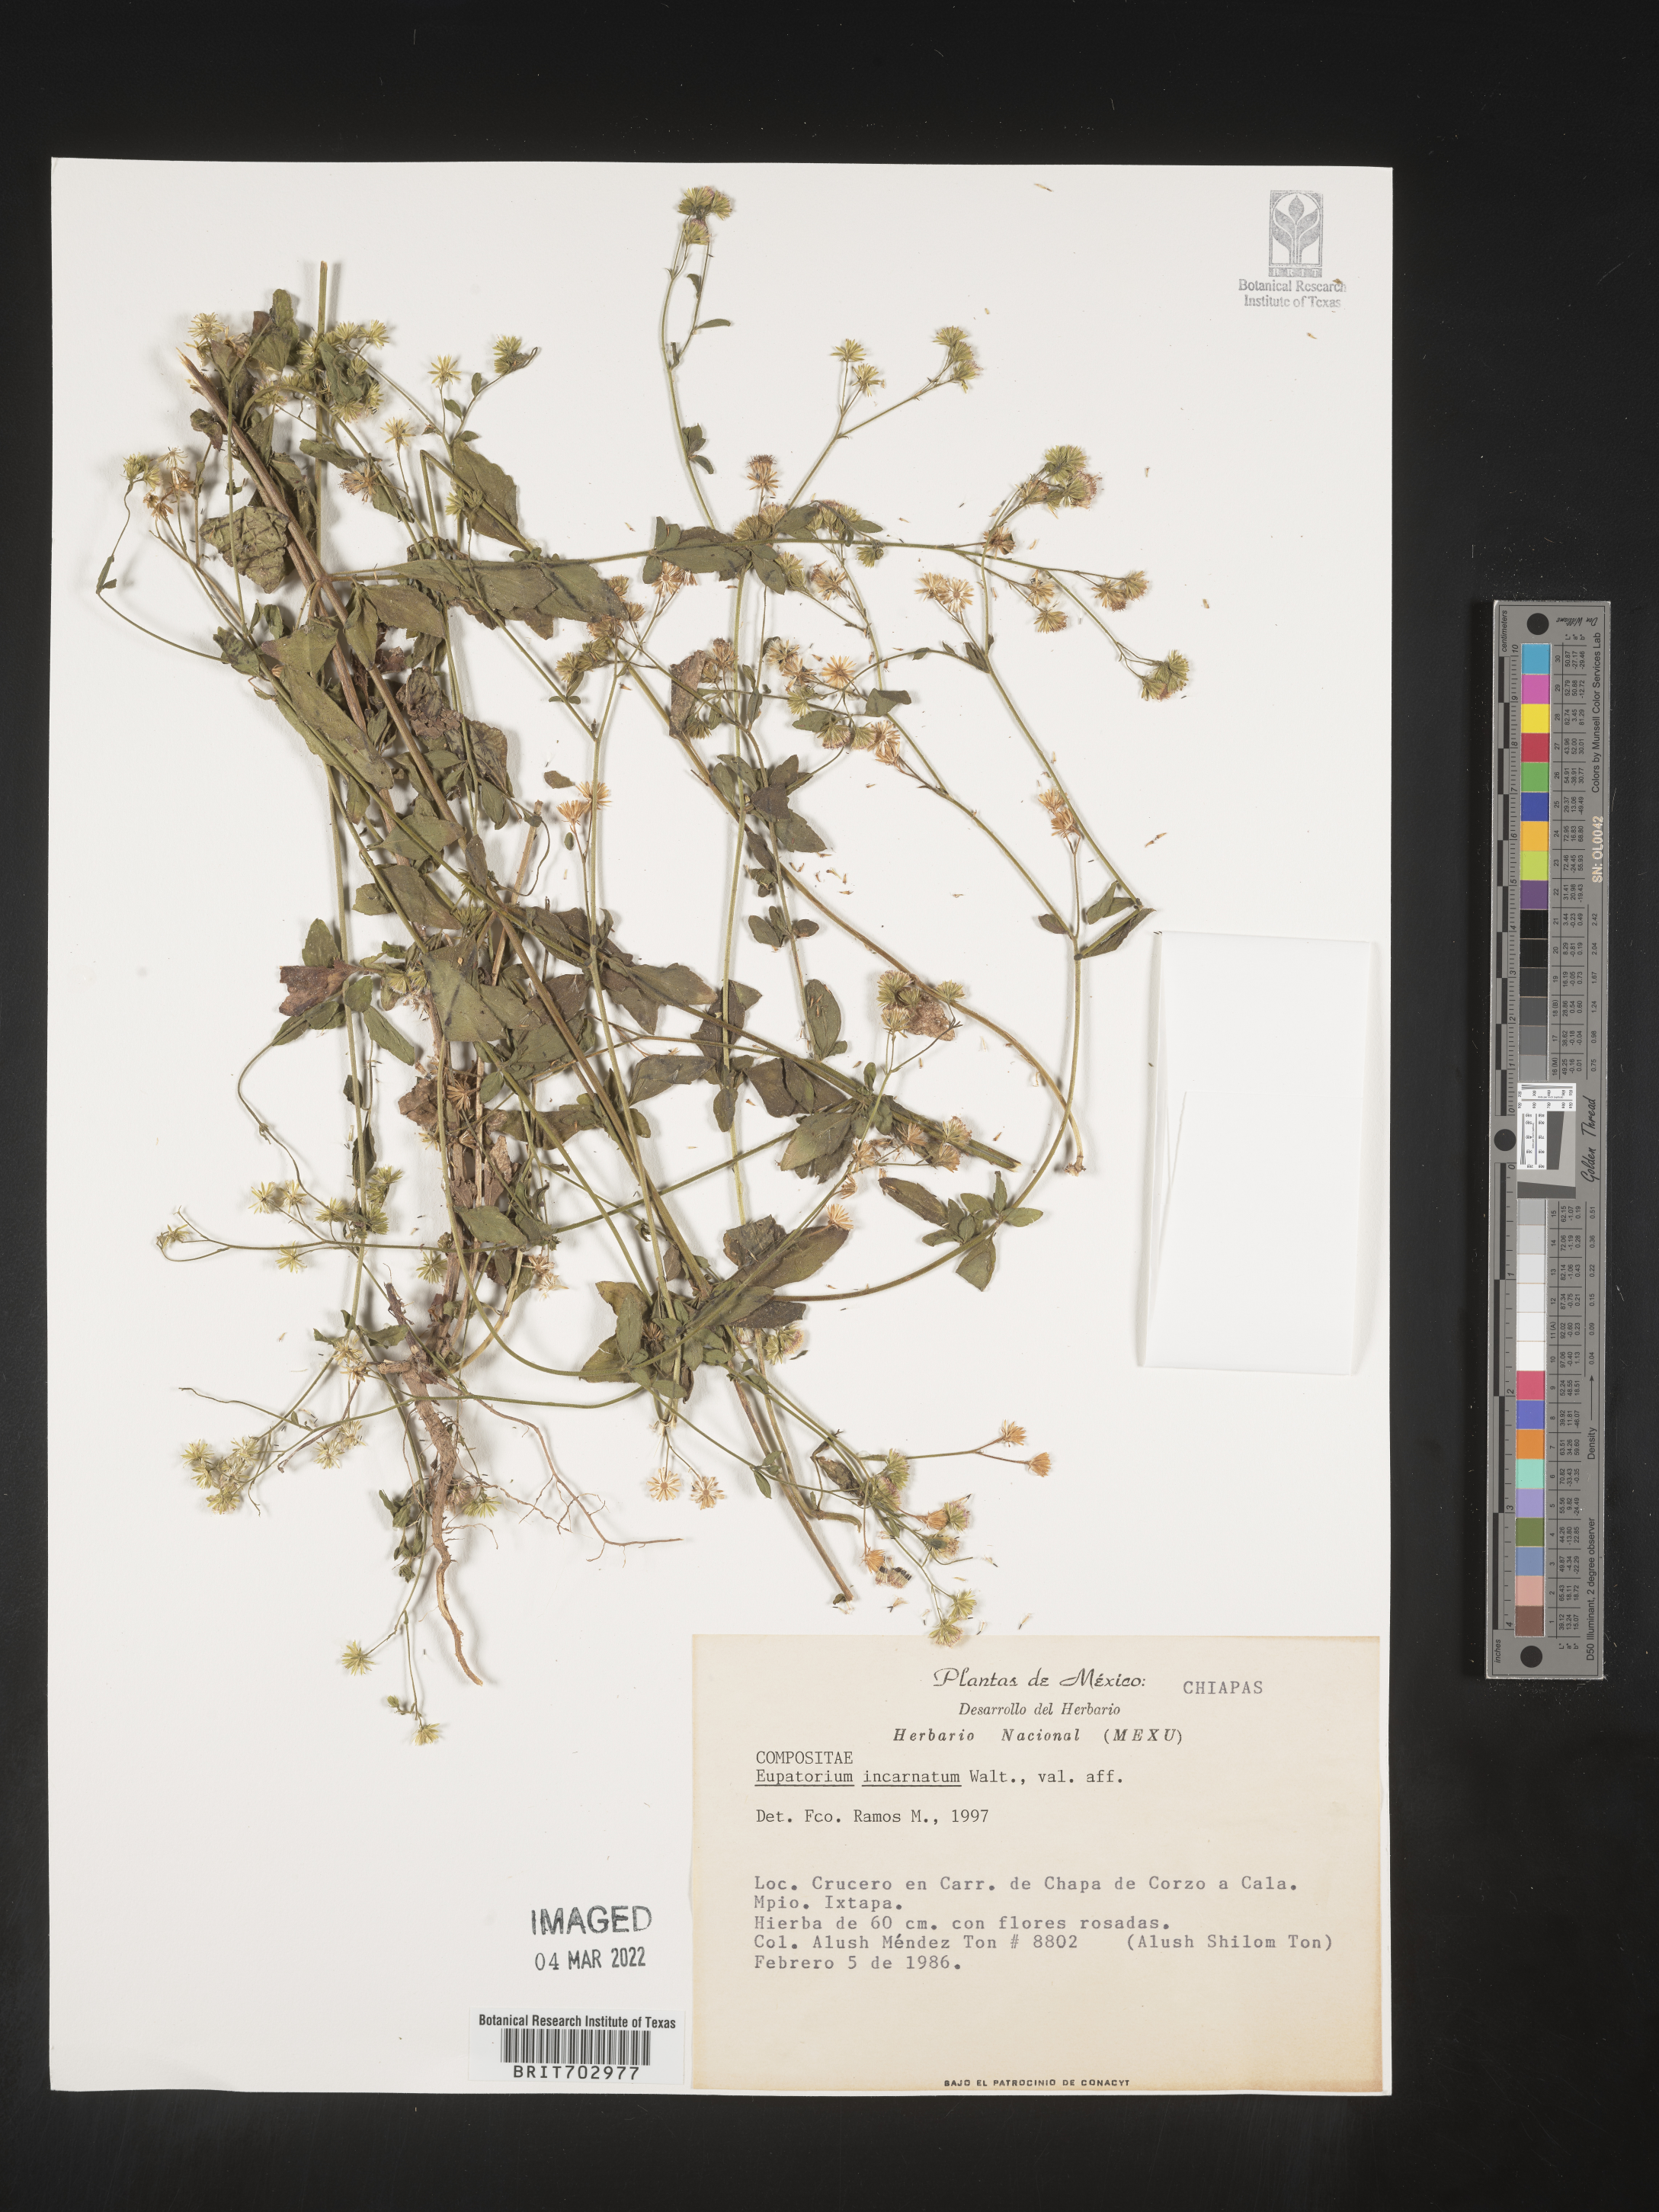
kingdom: Plantae
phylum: Tracheophyta
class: Magnoliopsida
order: Asterales
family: Asteraceae
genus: Eupatorium
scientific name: Eupatorium
